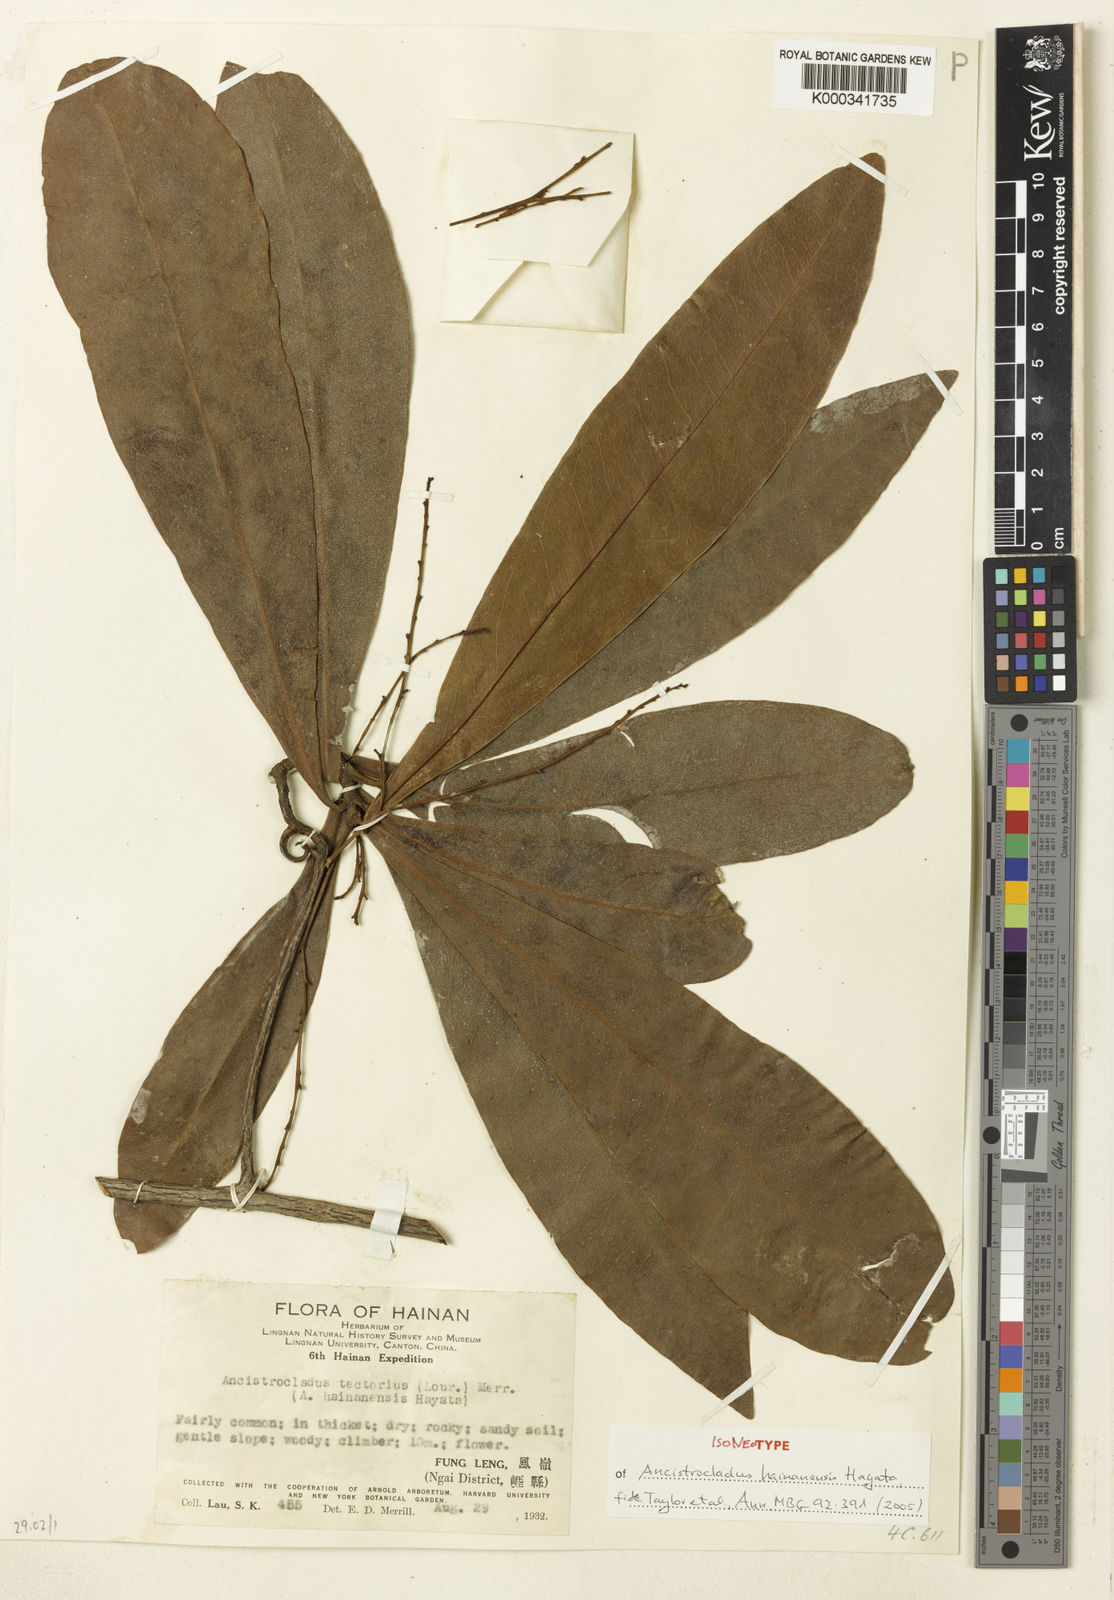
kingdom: Plantae
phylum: Tracheophyta
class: Magnoliopsida
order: Apiales
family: Araliaceae
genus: Astrotricha
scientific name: Astrotricha ledifolia
